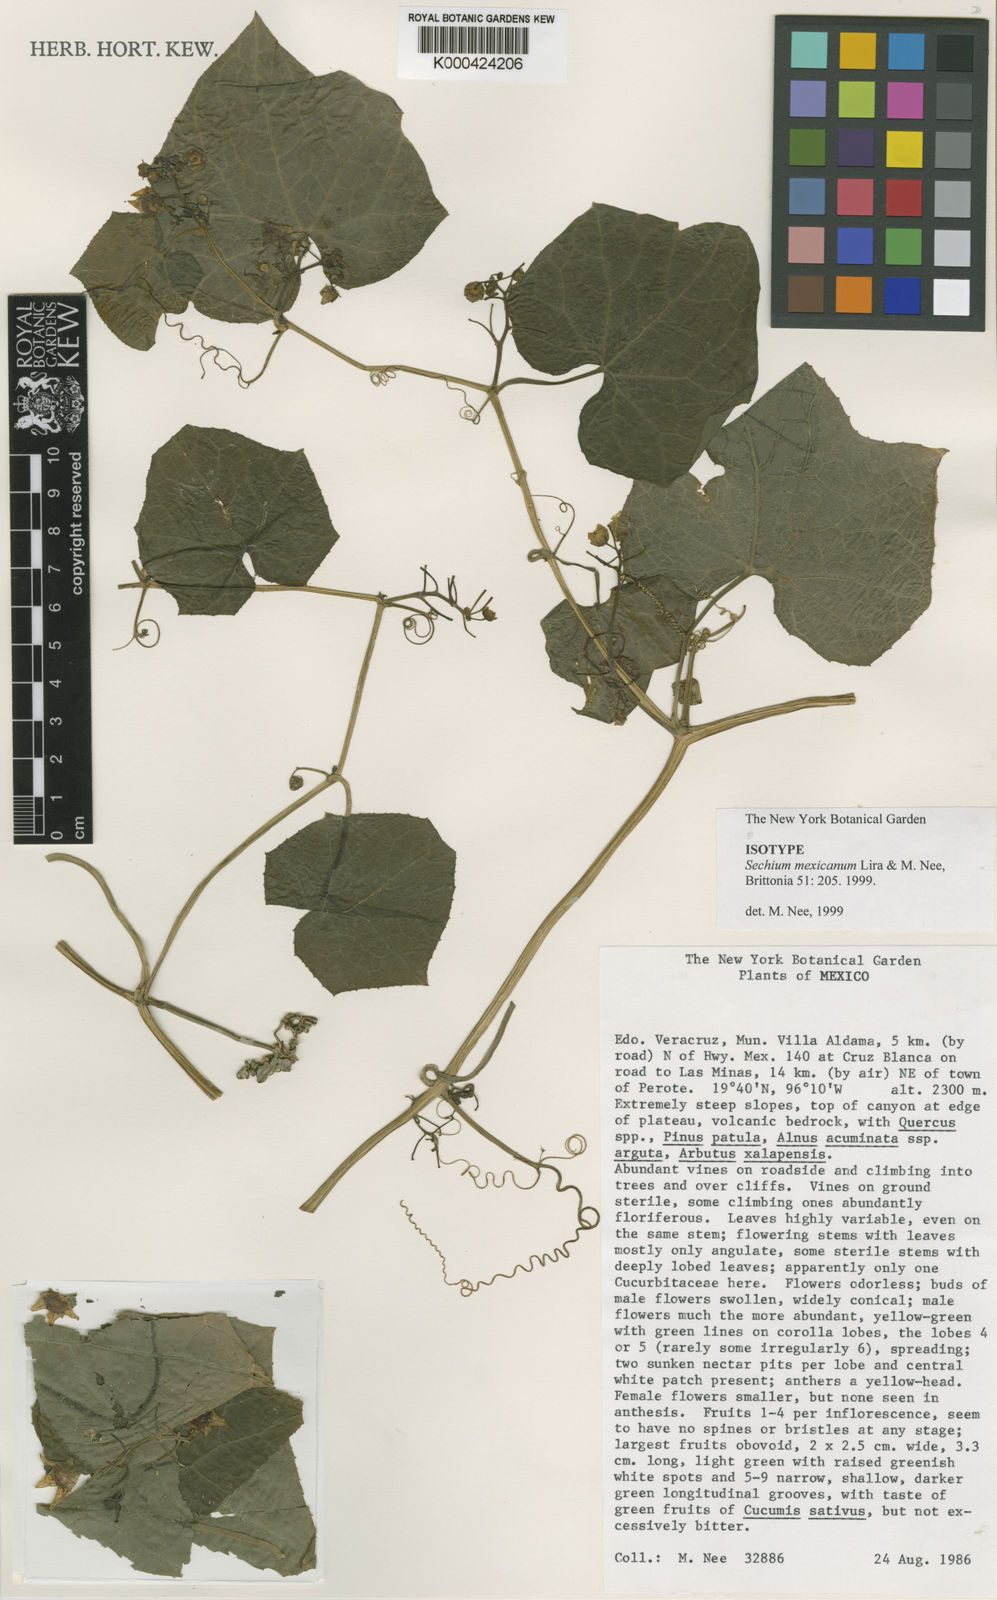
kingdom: Plantae
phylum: Tracheophyta
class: Magnoliopsida
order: Cucurbitales
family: Cucurbitaceae
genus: Sechium
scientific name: Sechium mexicanum
